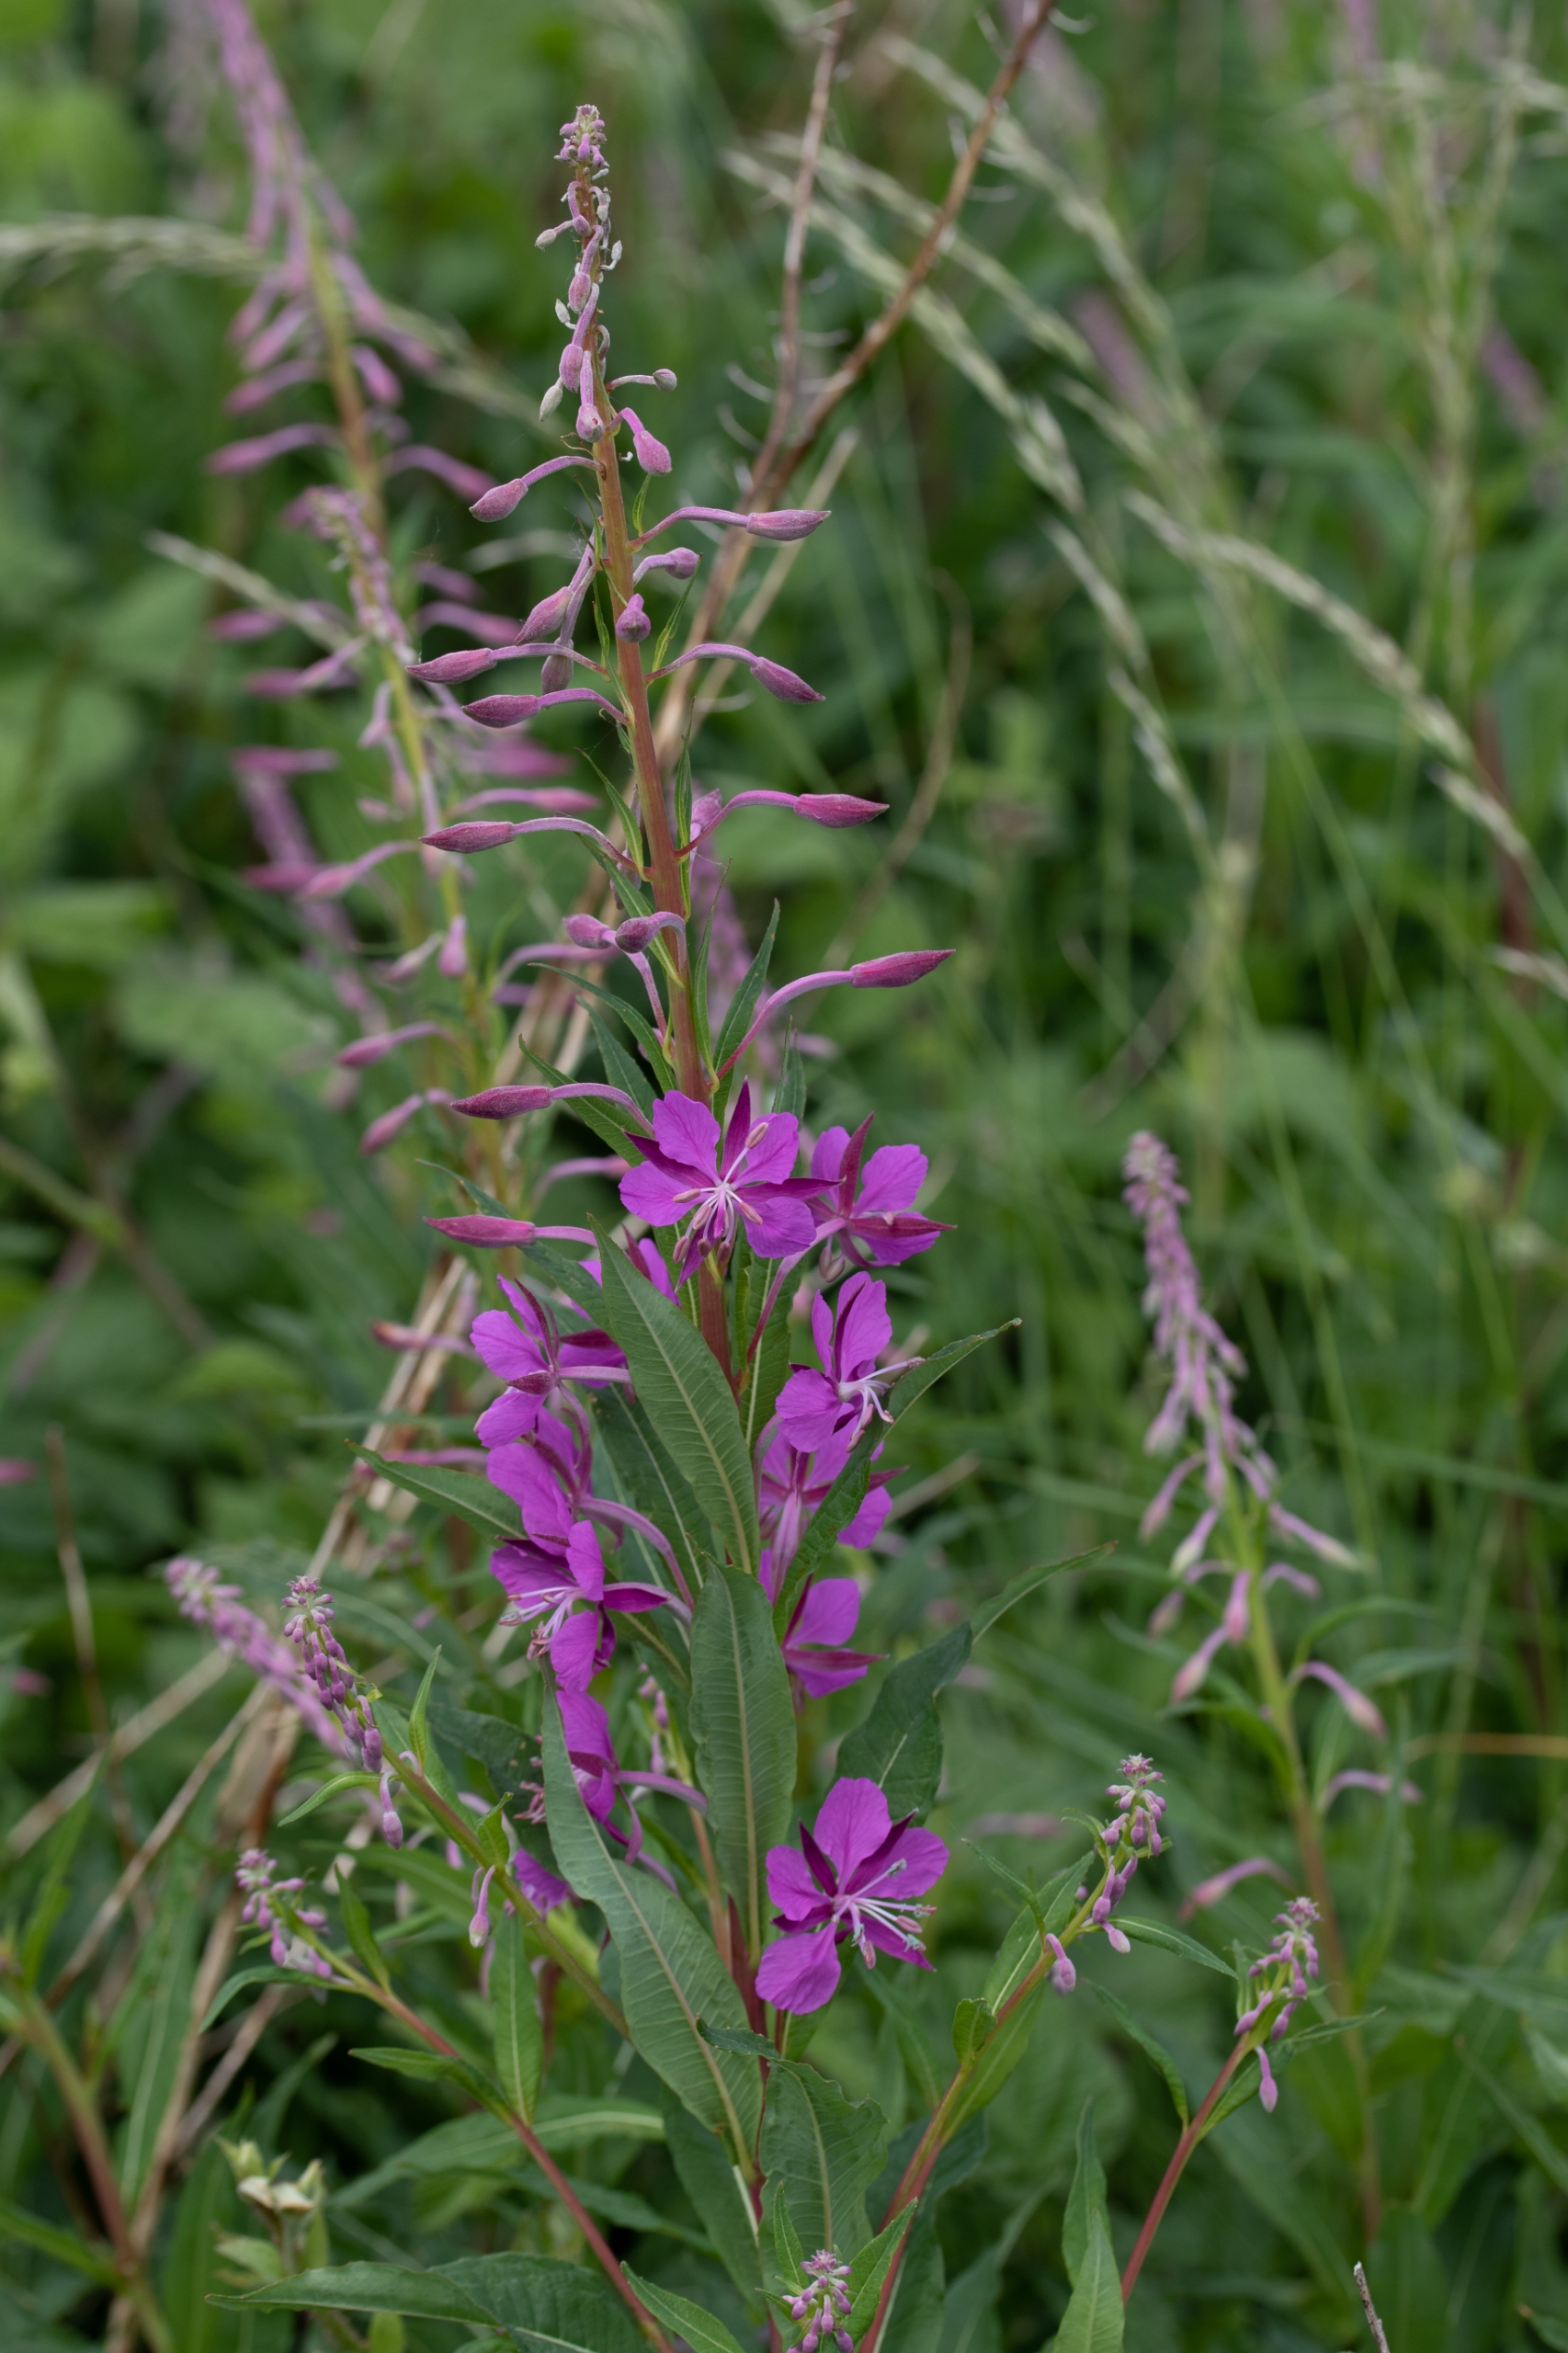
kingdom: Plantae
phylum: Tracheophyta
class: Magnoliopsida
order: Myrtales
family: Onagraceae
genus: Chamaenerion
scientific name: Chamaenerion angustifolium
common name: Gederams
